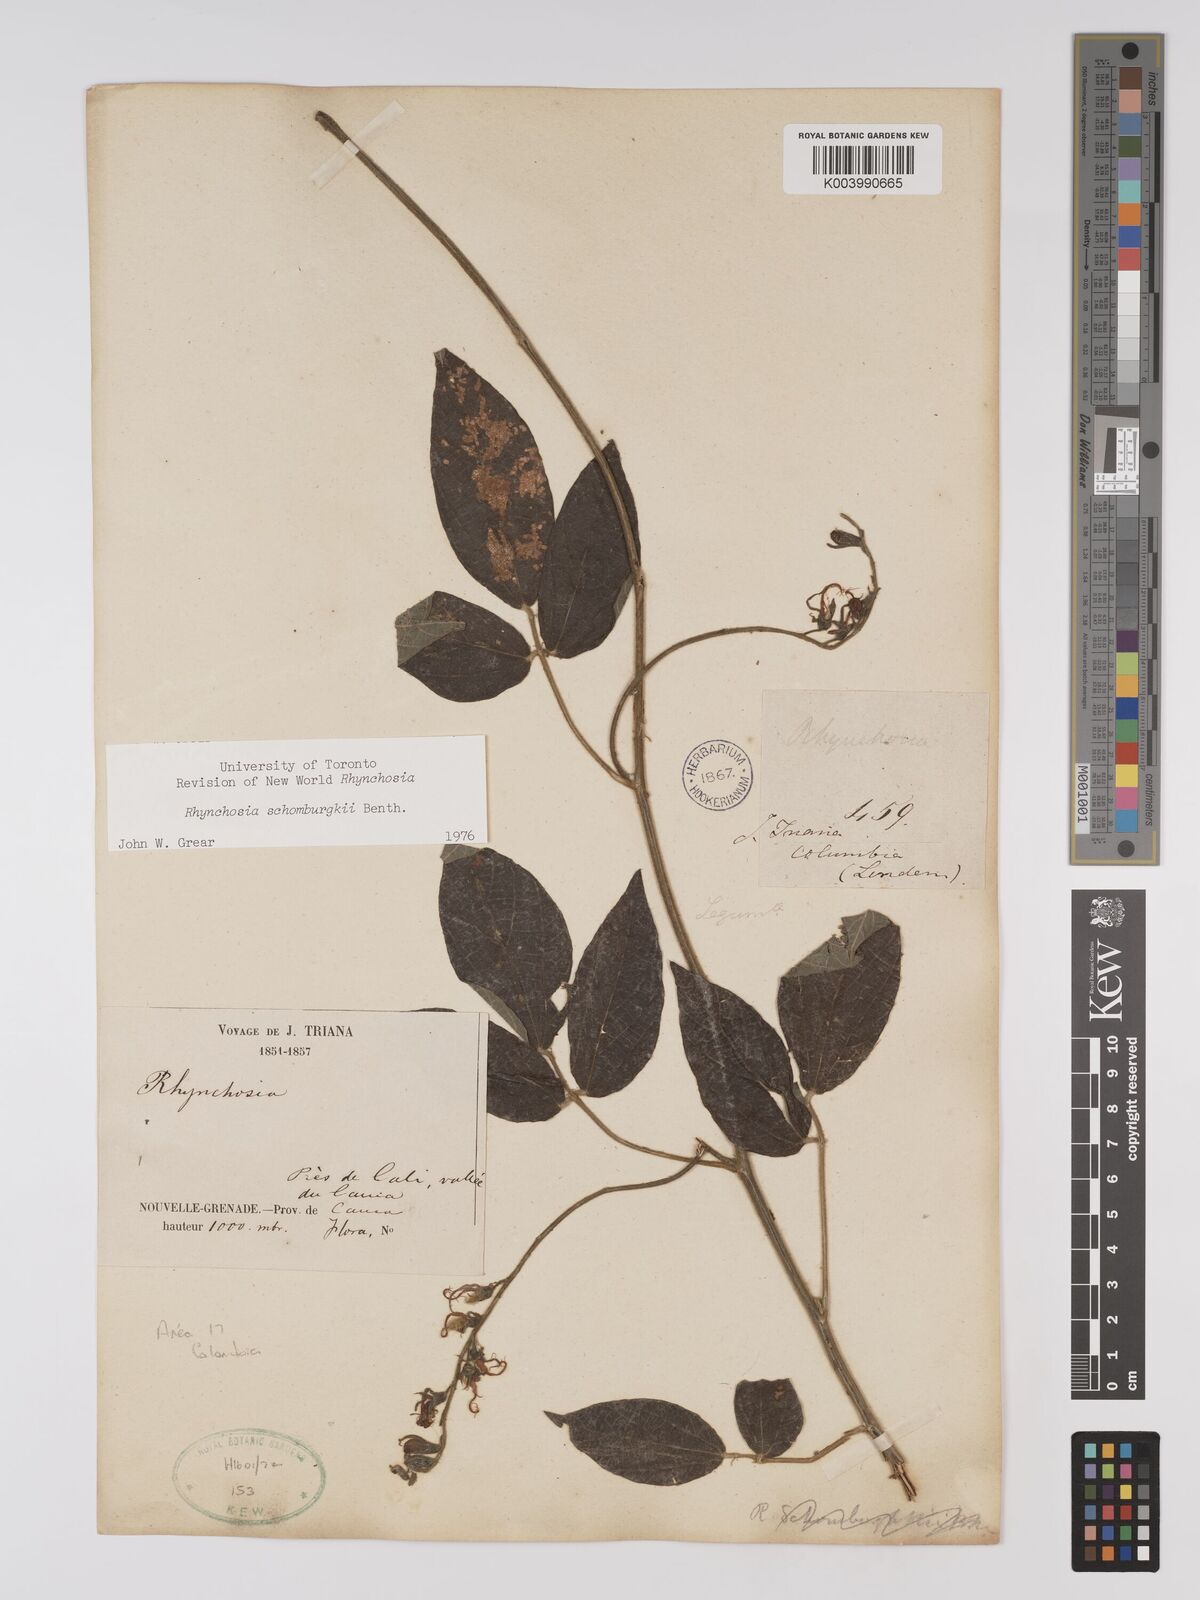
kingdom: Plantae
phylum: Tracheophyta
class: Magnoliopsida
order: Fabales
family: Fabaceae
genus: Rhynchosia
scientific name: Rhynchosia schomburgkii
